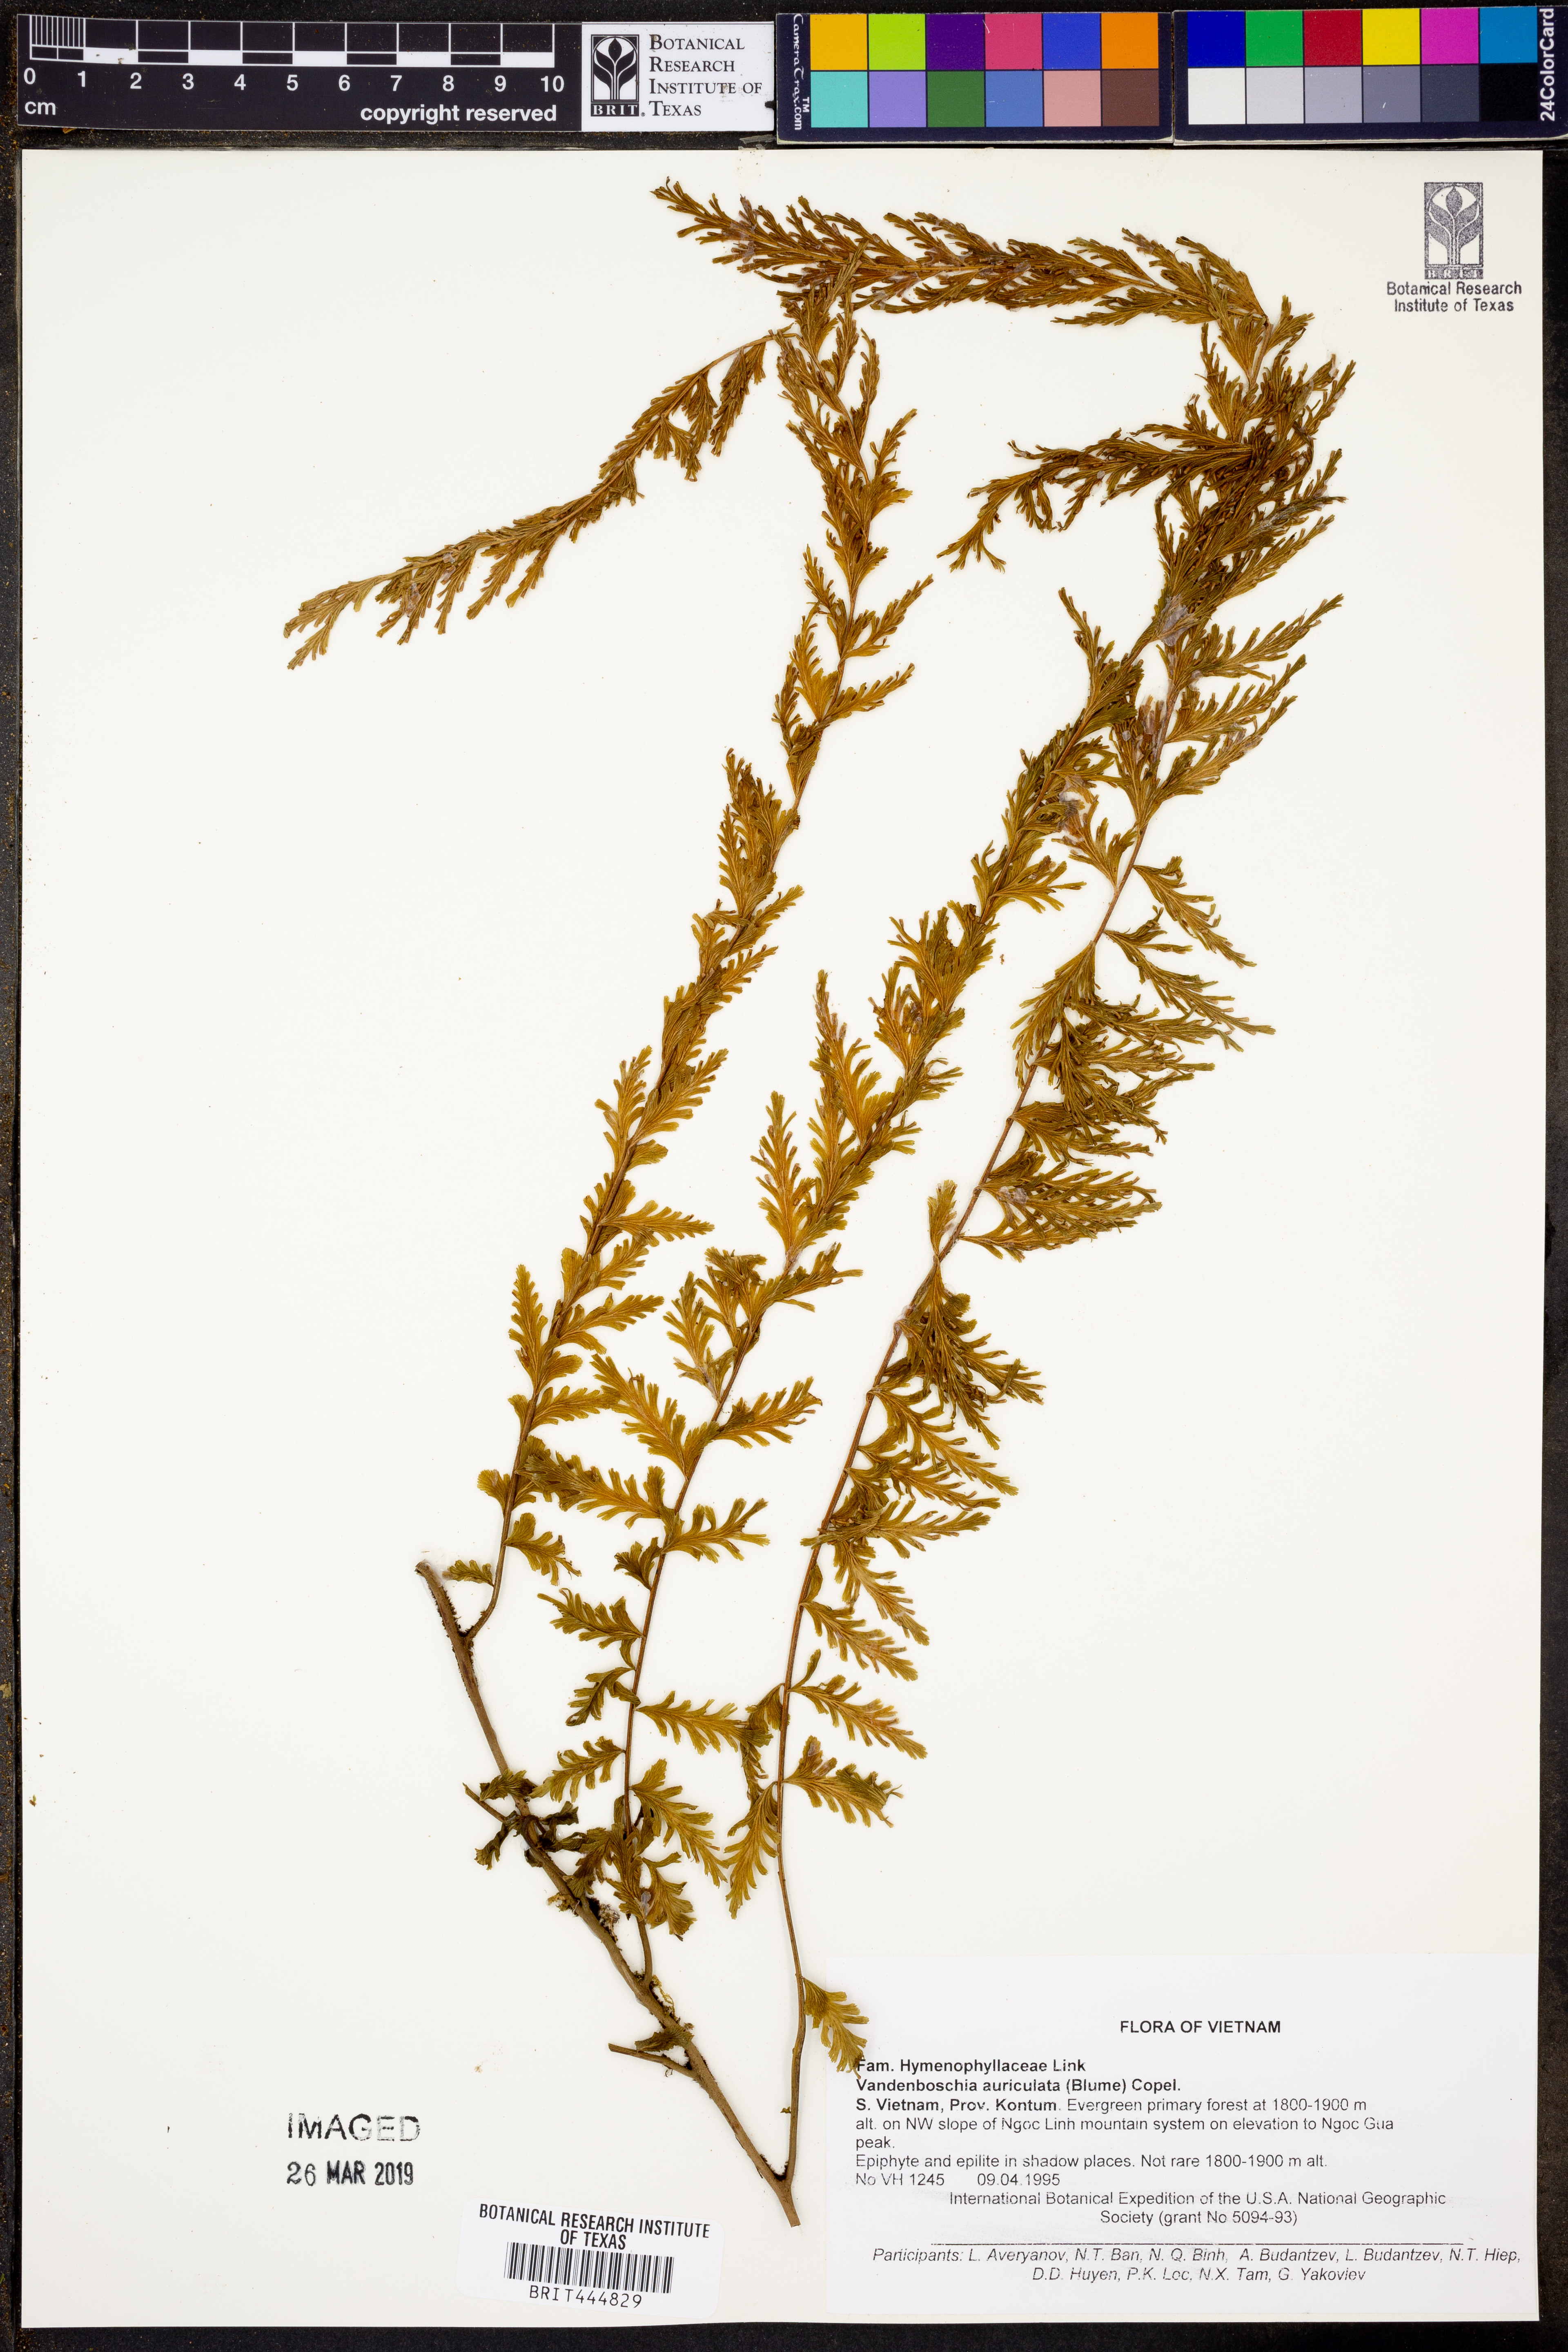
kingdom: Plantae
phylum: Tracheophyta
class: Polypodiopsida
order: Hymenophyllales
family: Hymenophyllaceae
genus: Vandenboschia
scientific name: Vandenboschia auriculata
